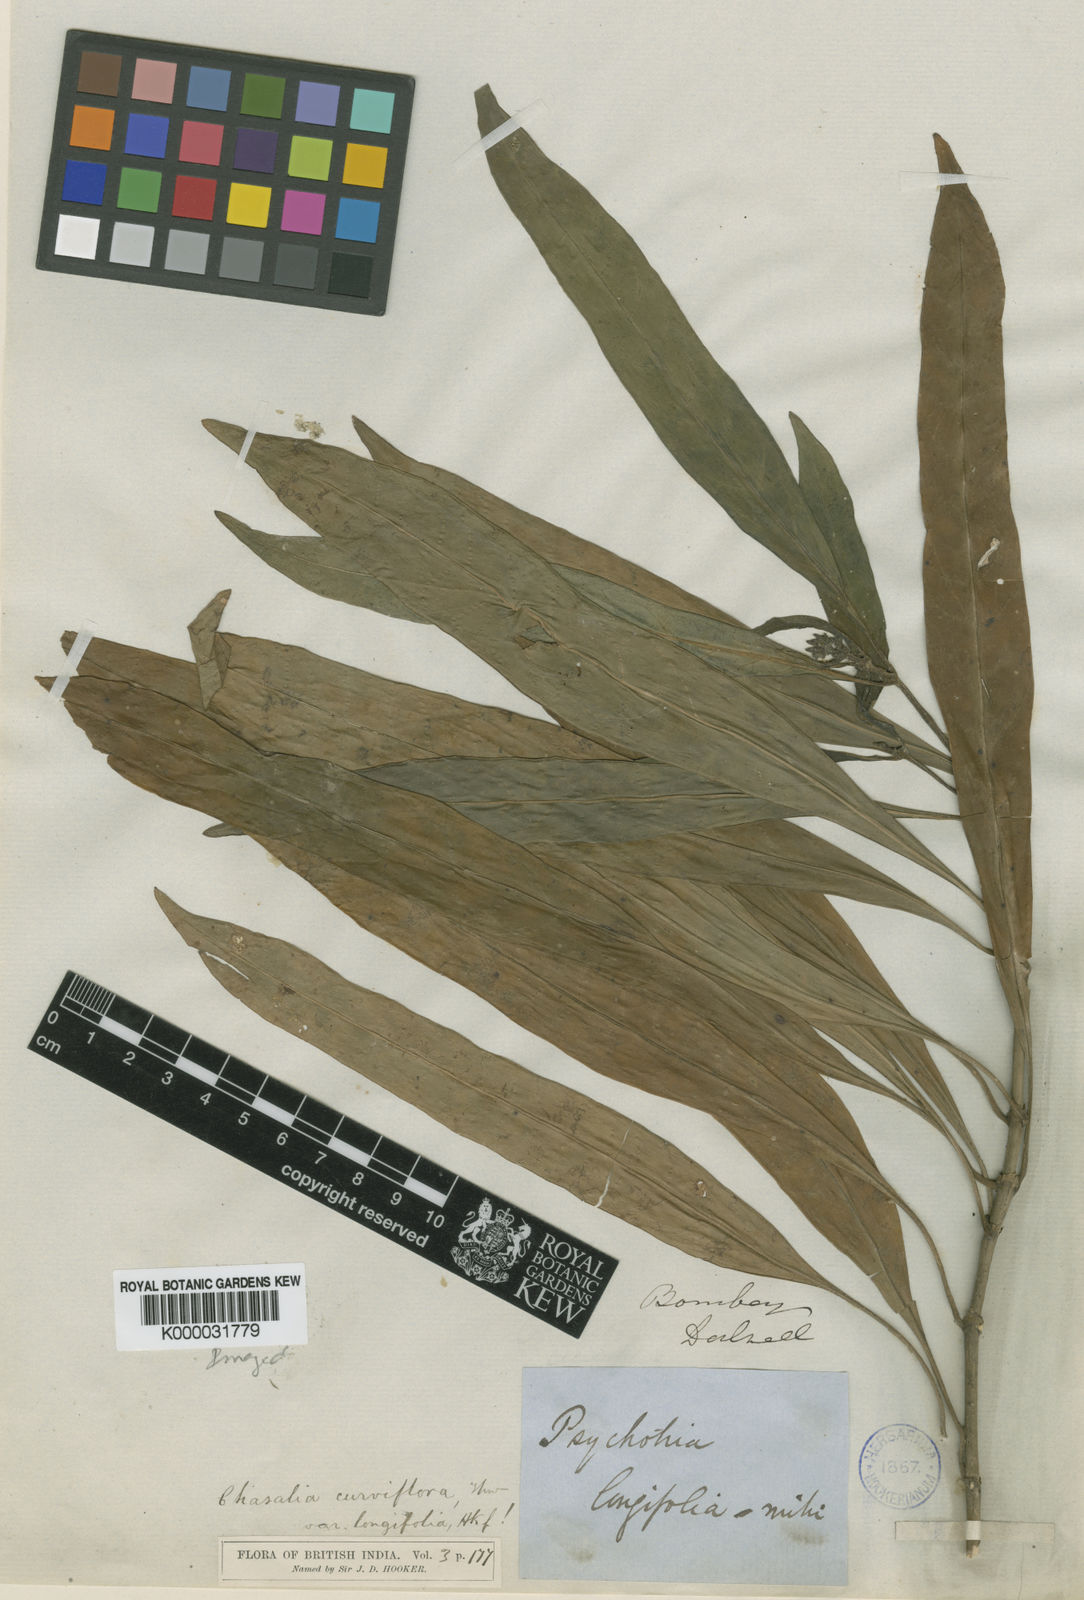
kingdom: Plantae
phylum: Tracheophyta
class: Magnoliopsida
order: Gentianales
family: Rubiaceae
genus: Chassalia
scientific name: Chassalia curviflora
